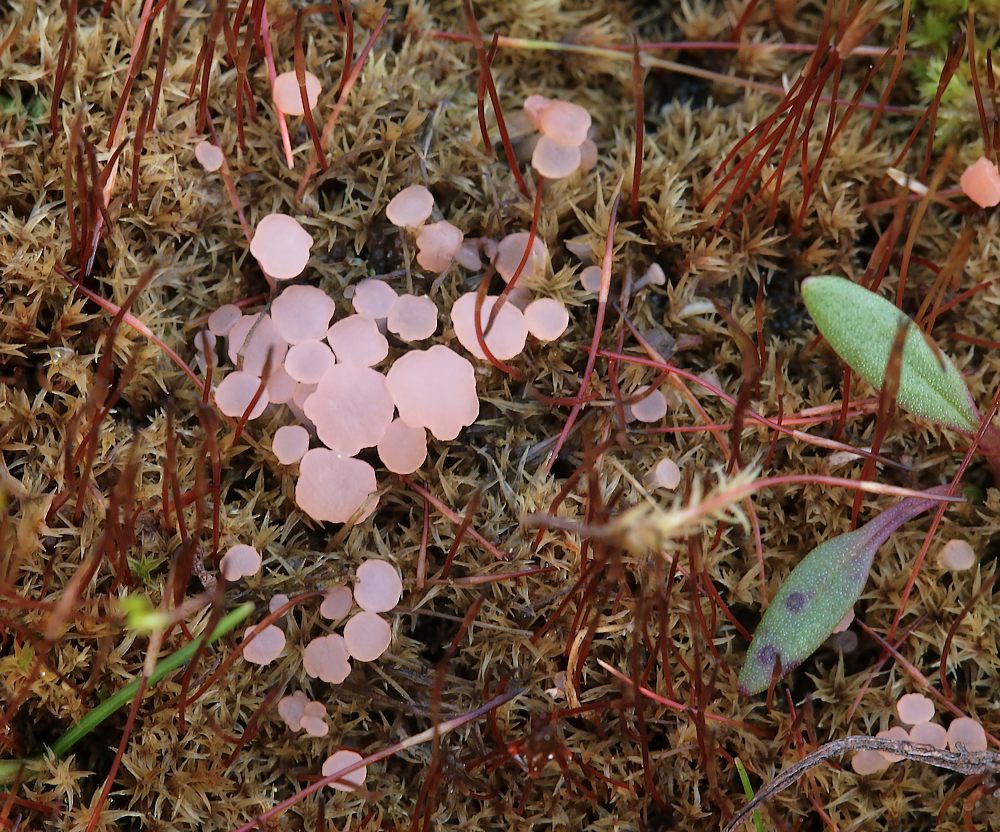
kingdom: Fungi
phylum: Ascomycota
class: Leotiomycetes
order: Helotiales
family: Hyaloscyphaceae
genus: Roseodiscus
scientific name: Roseodiscus formosus
